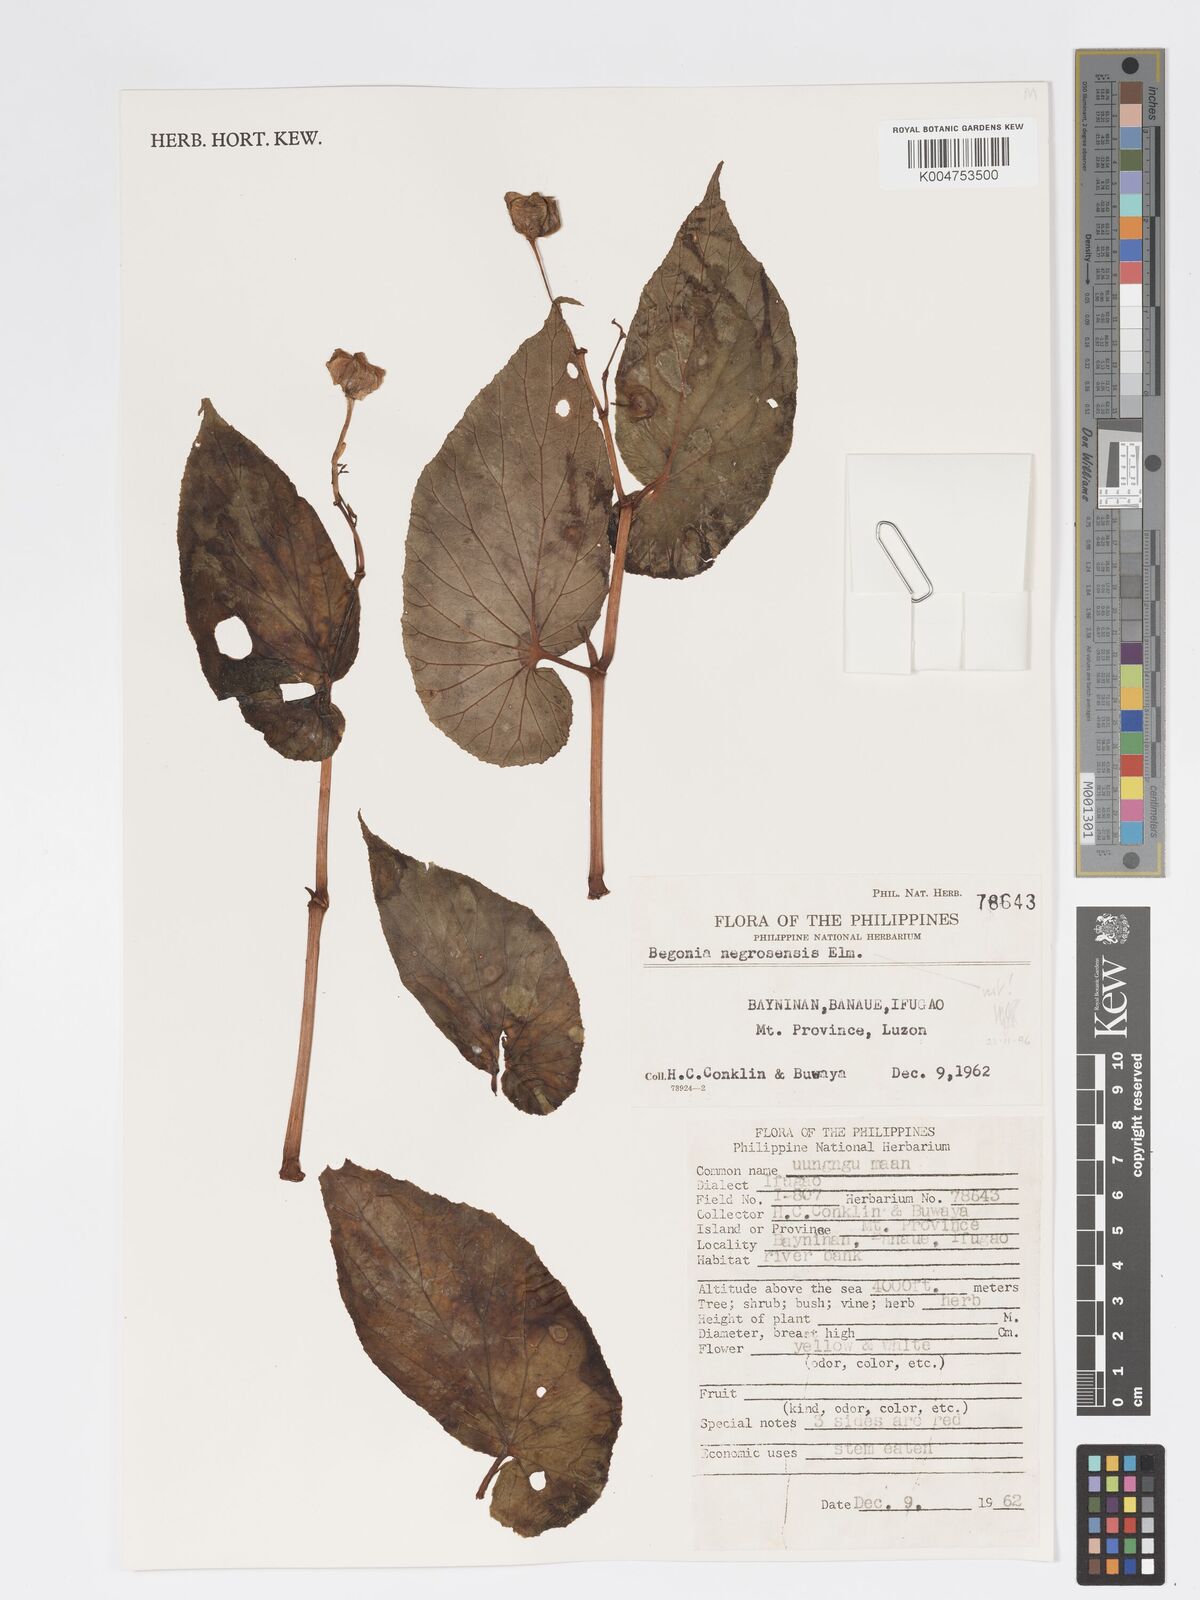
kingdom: Plantae
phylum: Tracheophyta
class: Magnoliopsida
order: Cucurbitales
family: Begoniaceae
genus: Begonia
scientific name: Begonia
